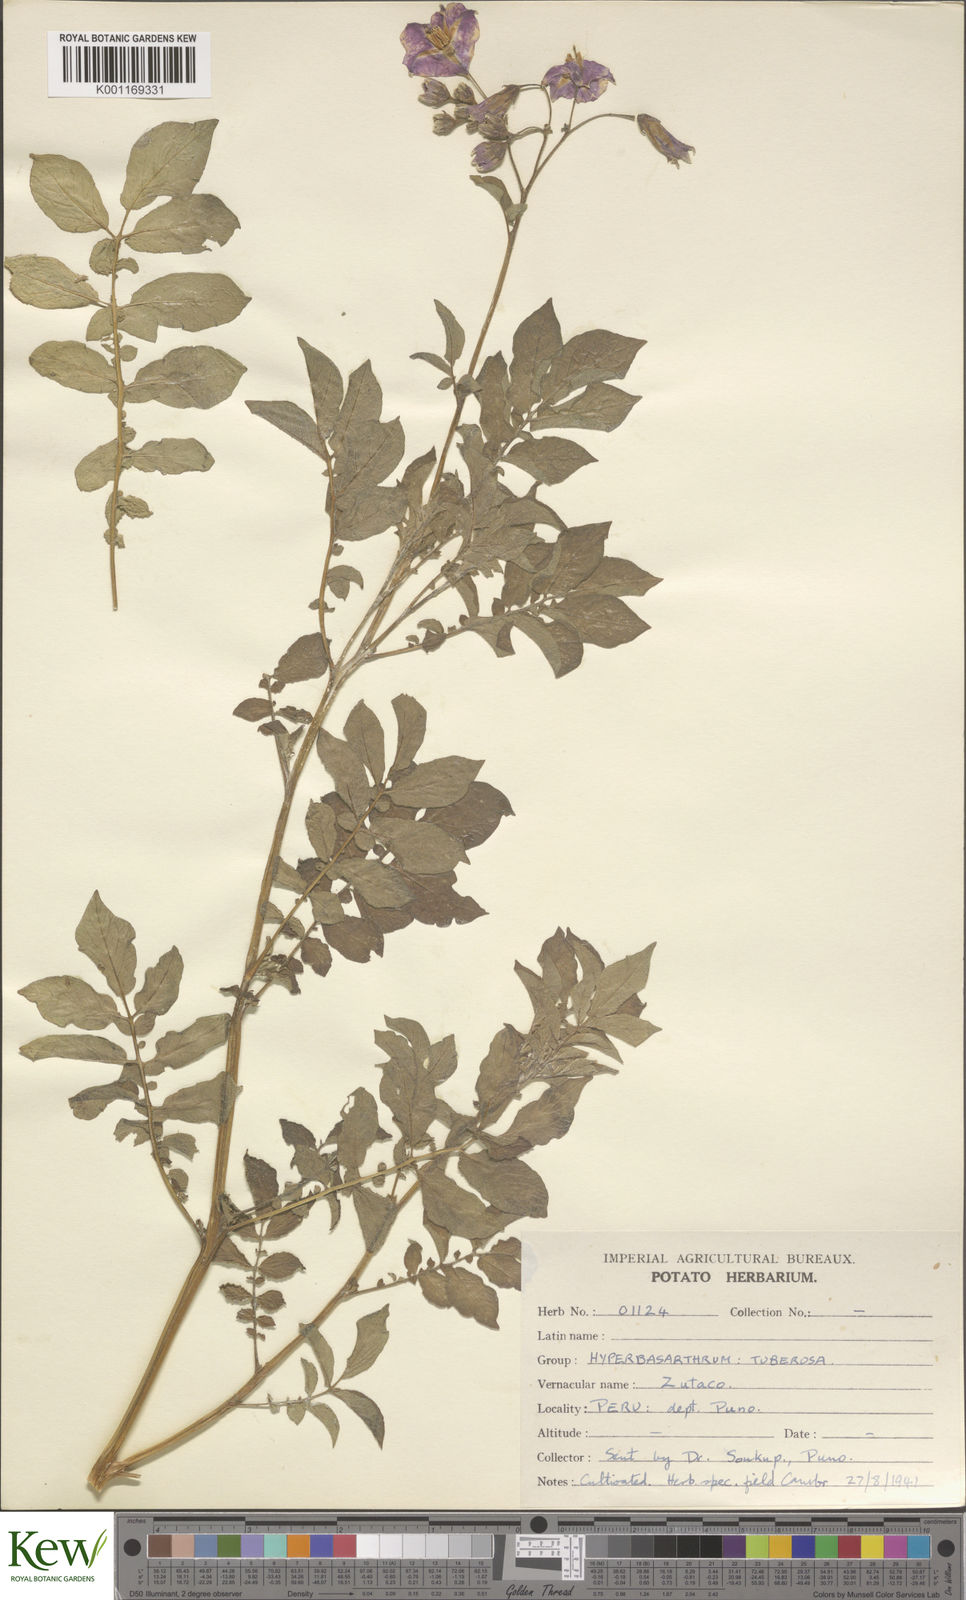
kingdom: Plantae
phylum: Tracheophyta
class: Magnoliopsida
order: Solanales
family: Solanaceae
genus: Solanum
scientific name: Solanum chaucha
